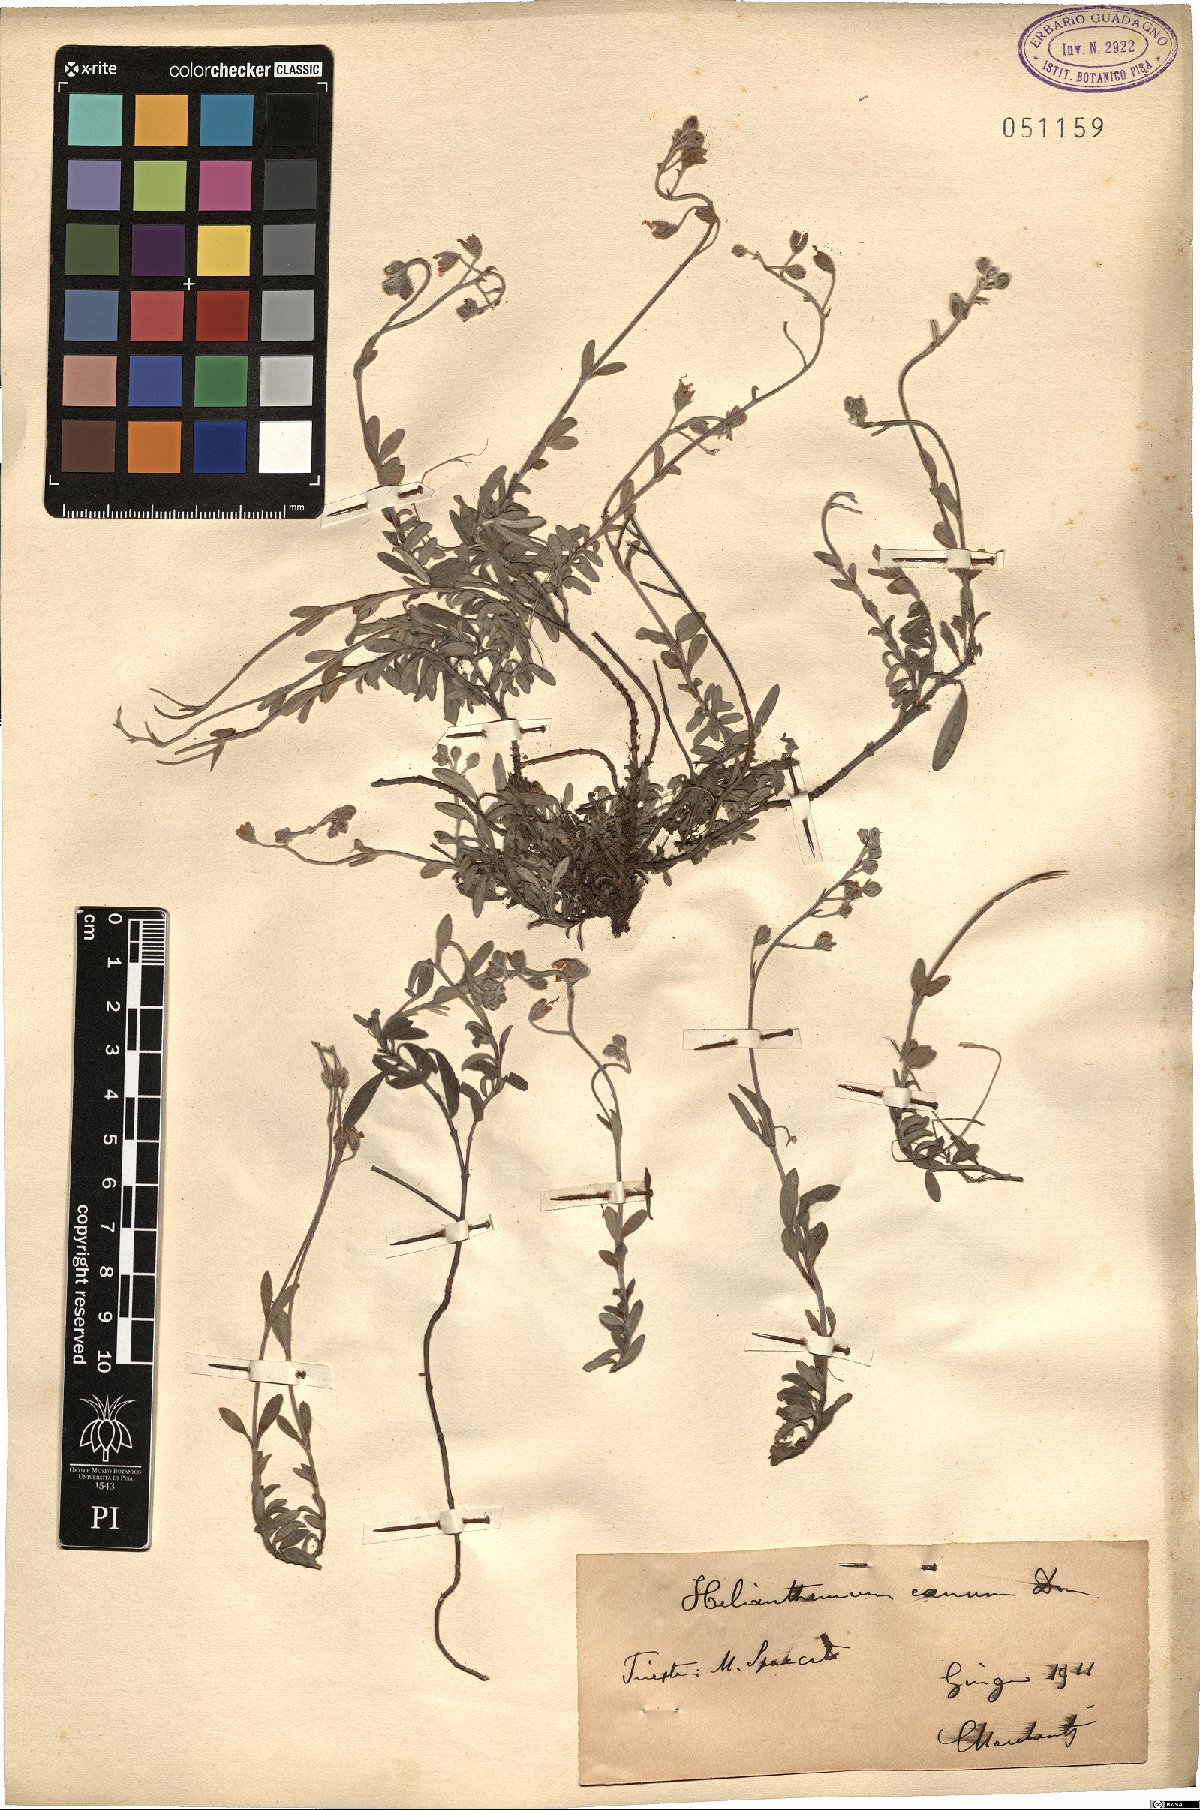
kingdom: Plantae
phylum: Tracheophyta
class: Magnoliopsida
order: Malvales
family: Cistaceae
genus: Helianthemum
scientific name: Helianthemum canum
